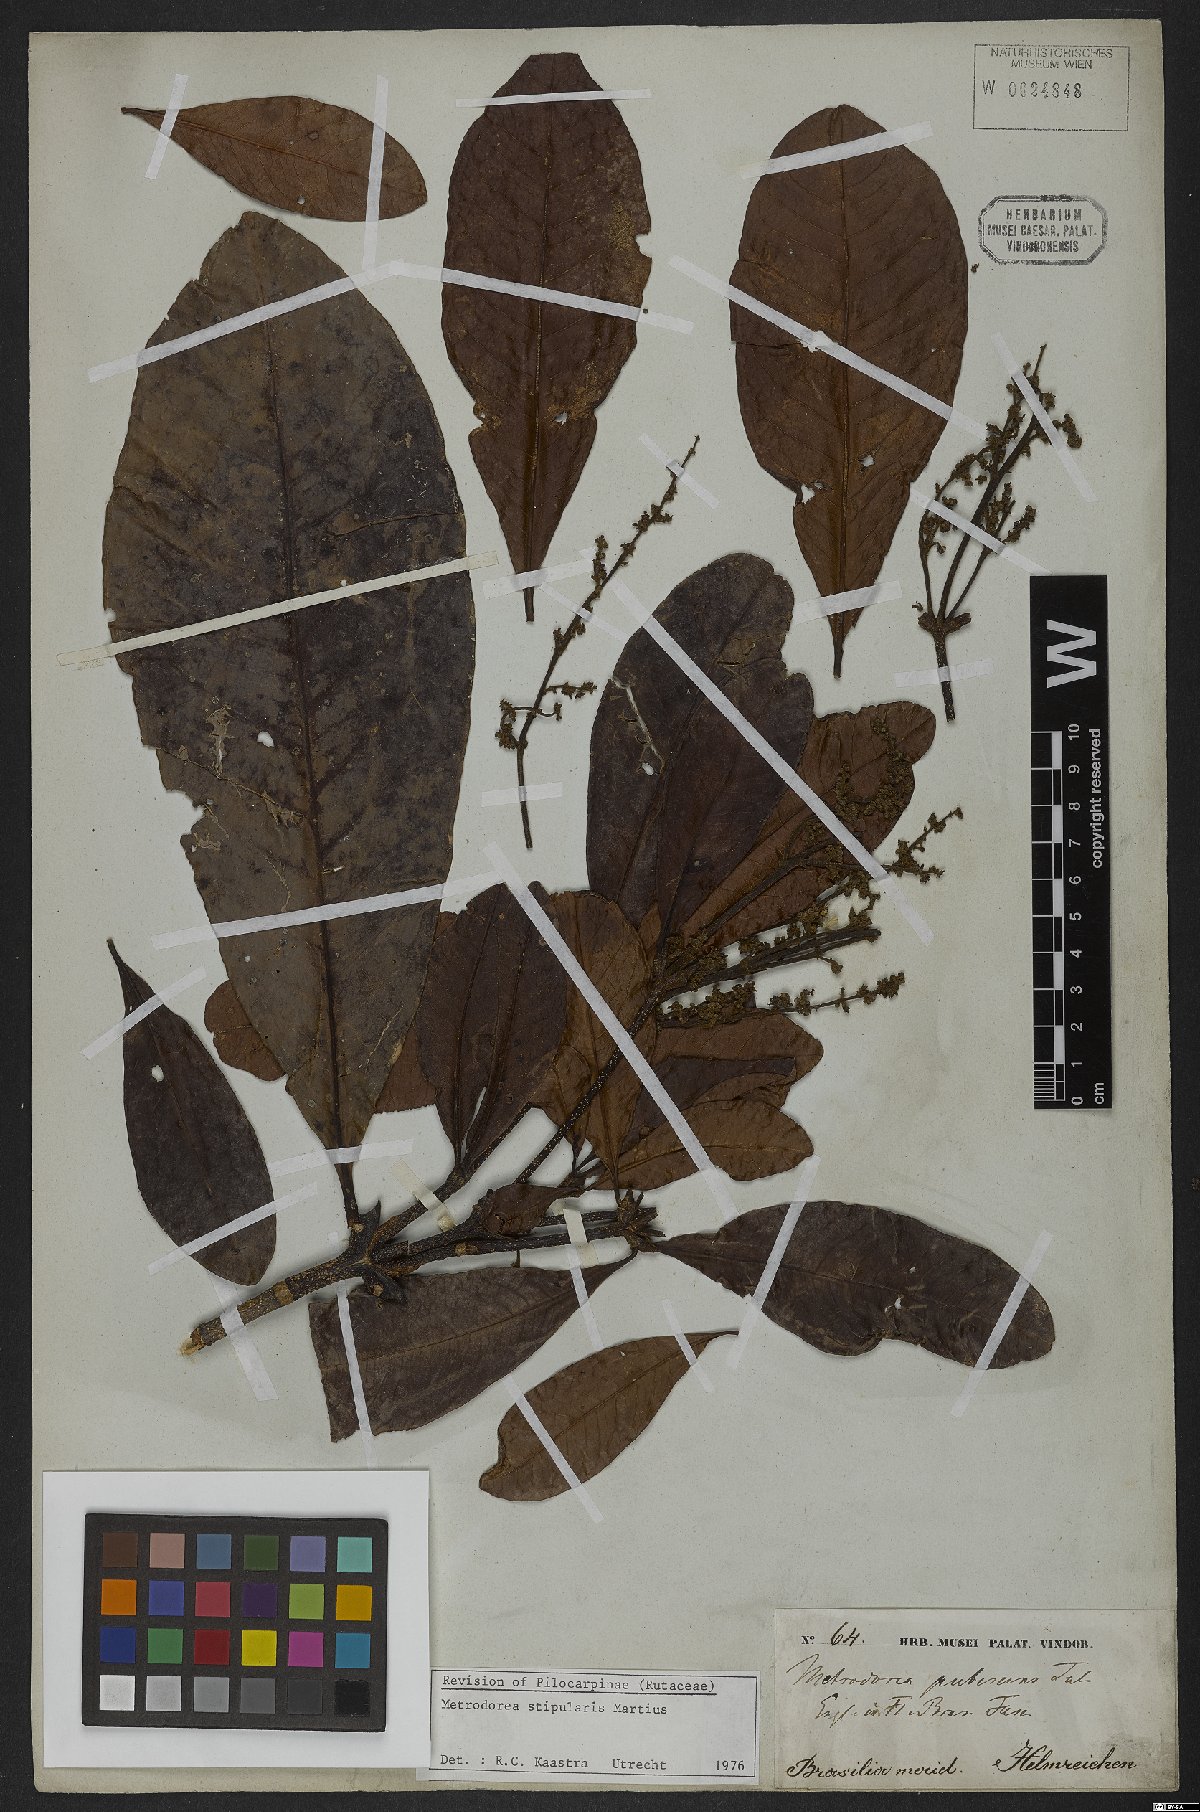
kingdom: Plantae
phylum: Tracheophyta
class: Magnoliopsida
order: Sapindales
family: Rutaceae
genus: Metrodorea
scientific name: Metrodorea stipularis
